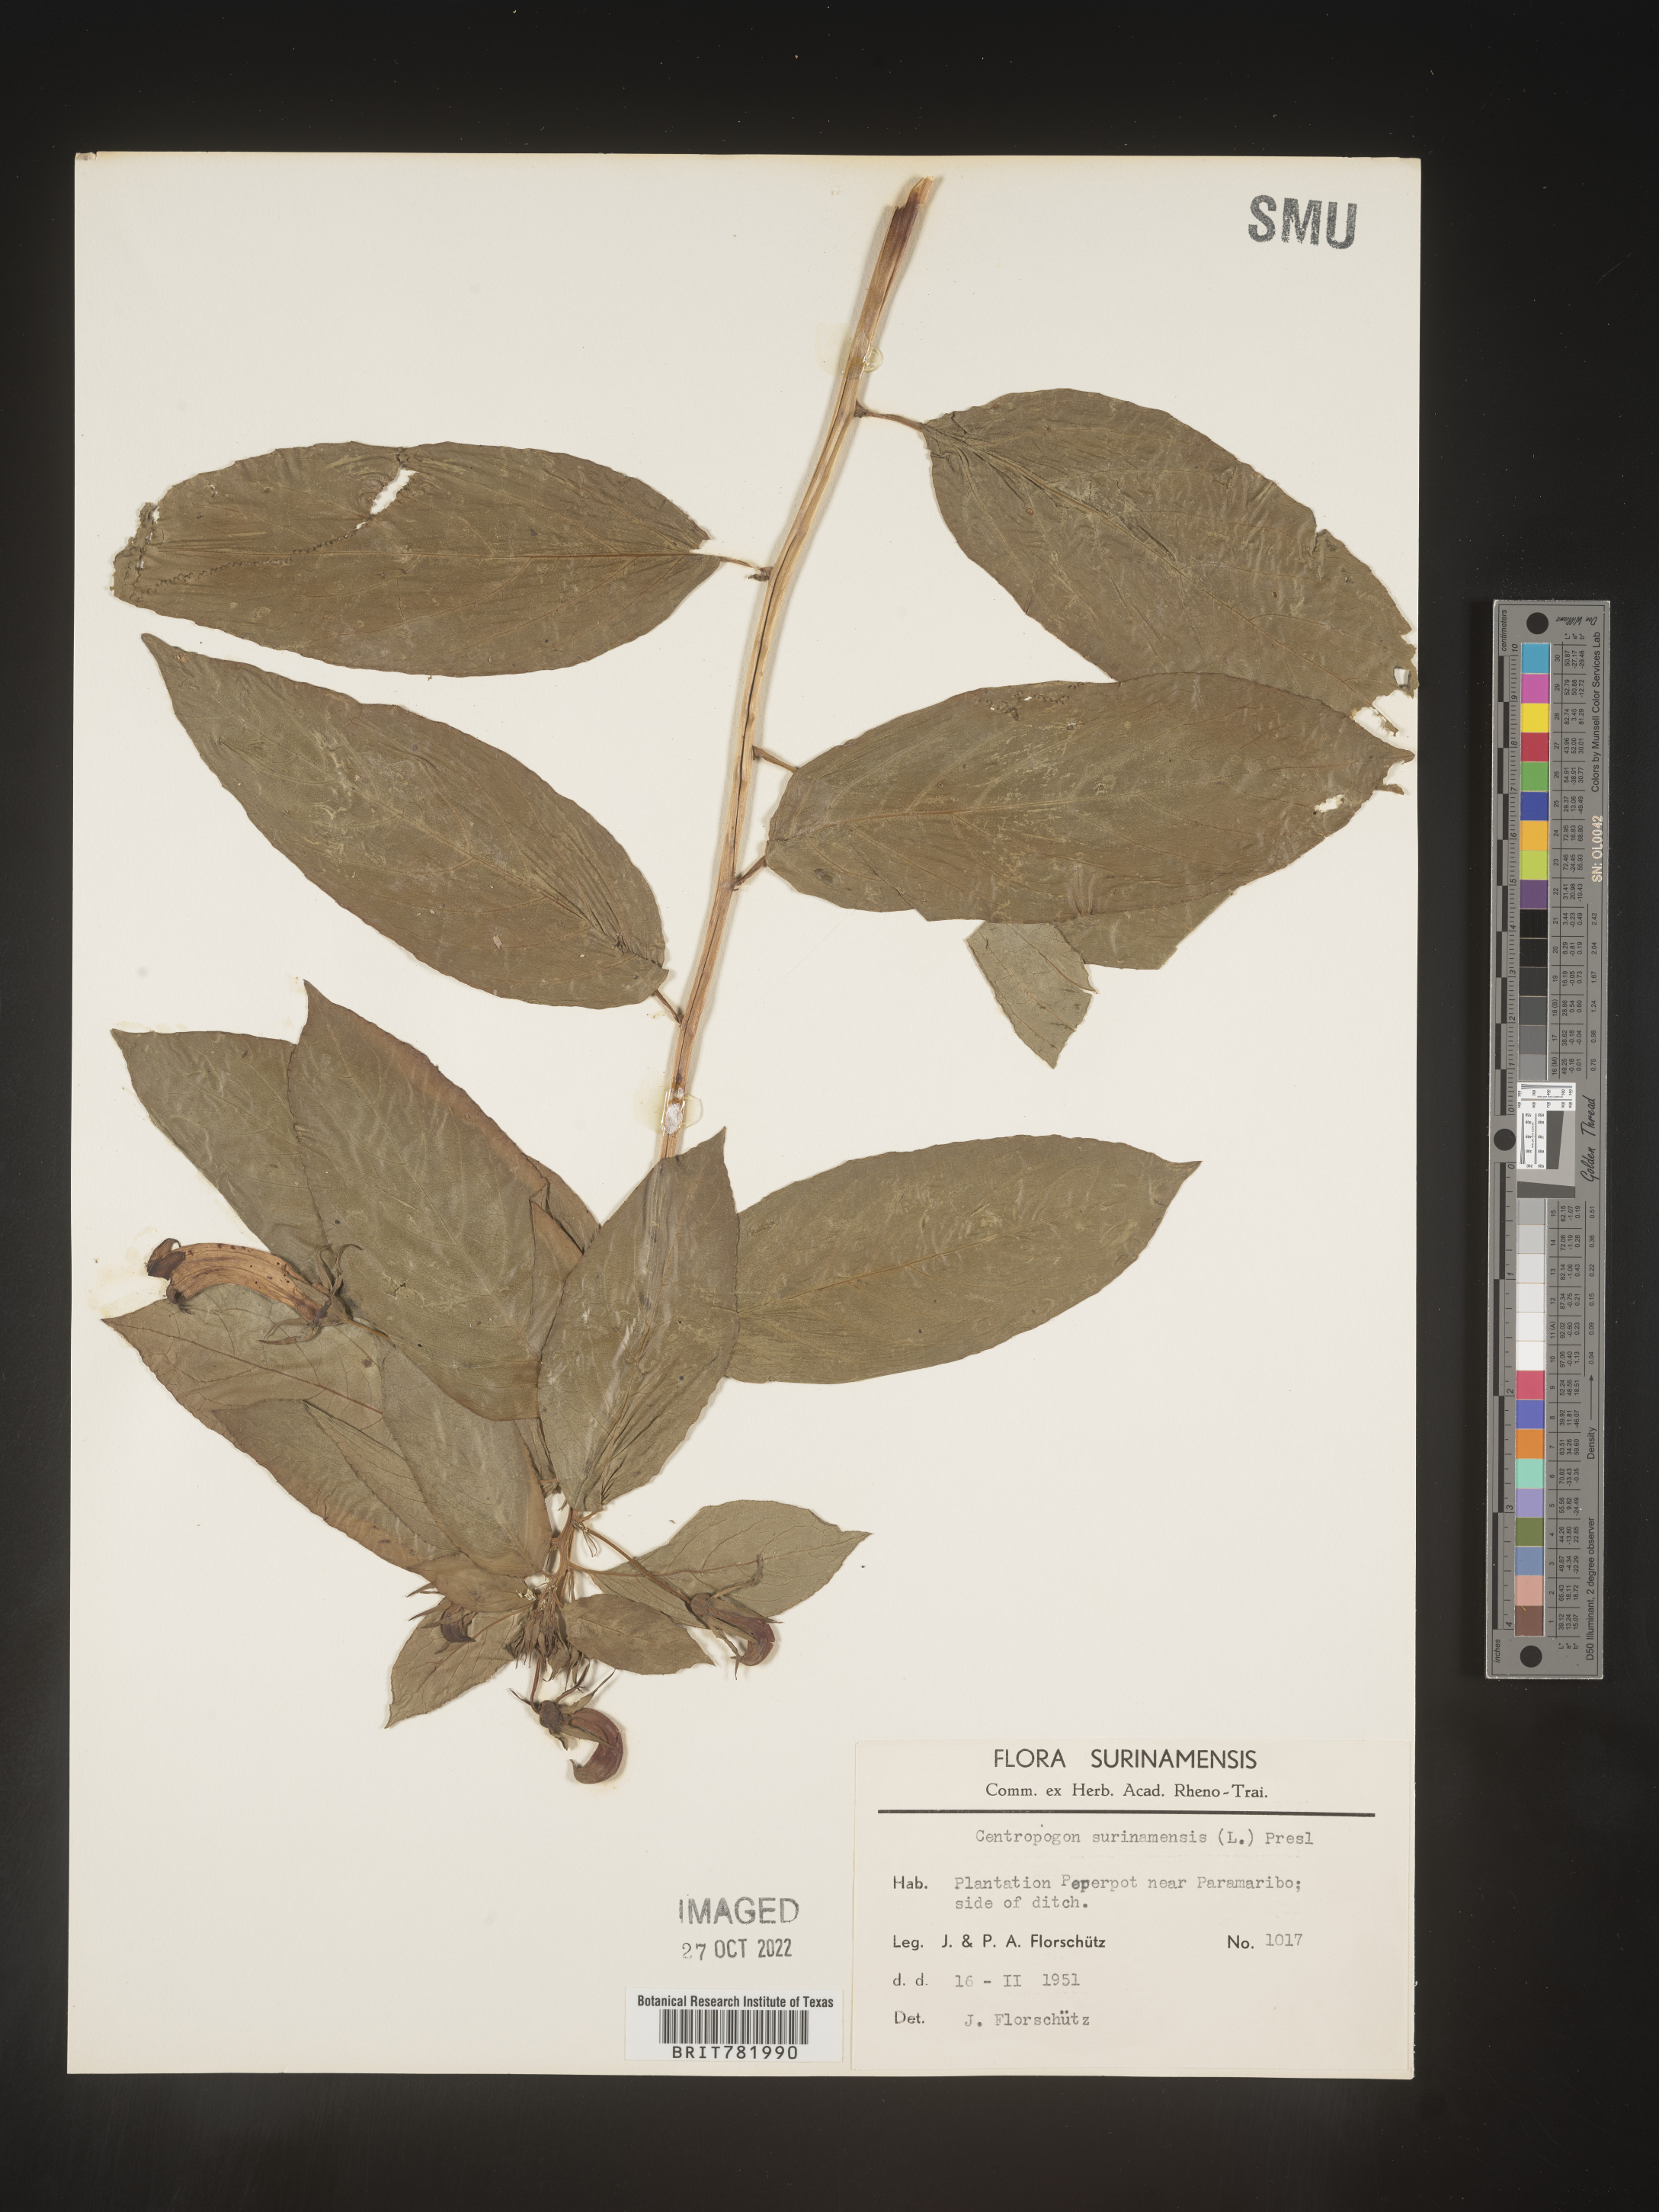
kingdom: Plantae
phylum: Tracheophyta
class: Magnoliopsida
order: Asterales
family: Campanulaceae
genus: Centropogon
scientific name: Centropogon
